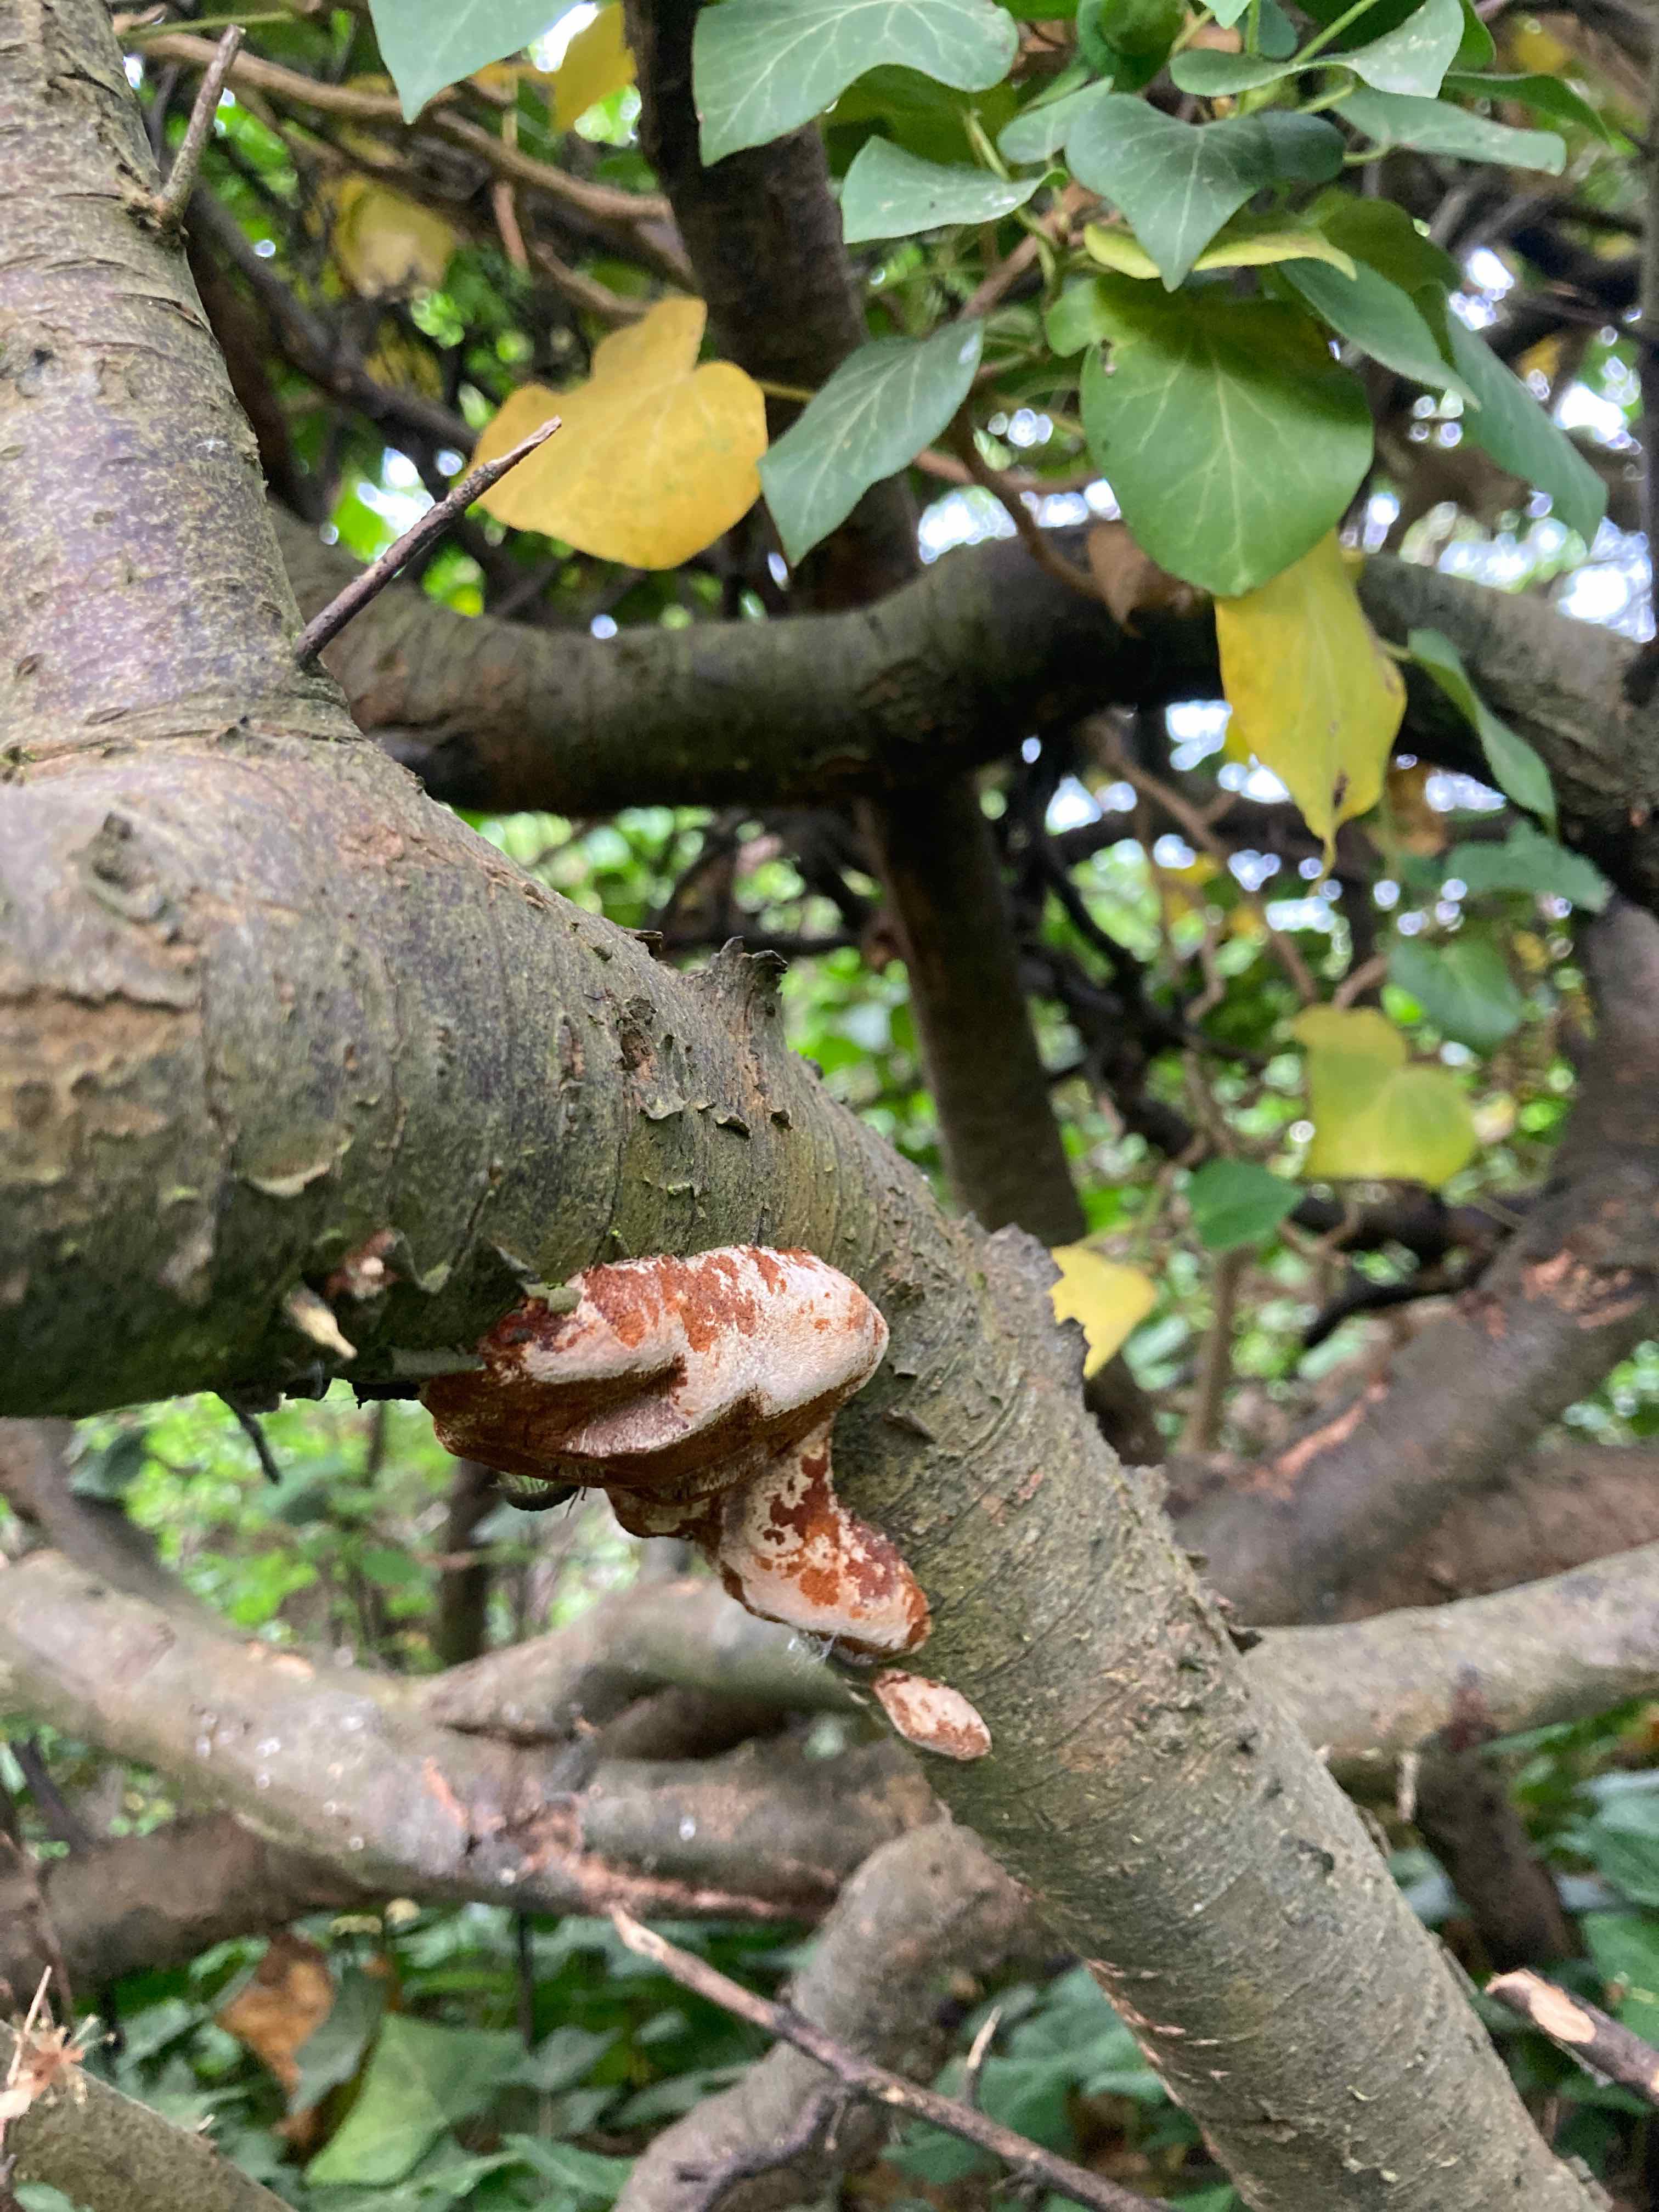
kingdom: Fungi
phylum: Basidiomycota
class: Agaricomycetes
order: Hymenochaetales
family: Hymenochaetaceae
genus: Phellinus
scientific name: Phellinus pomaceus
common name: blomme-ildporesvamp
